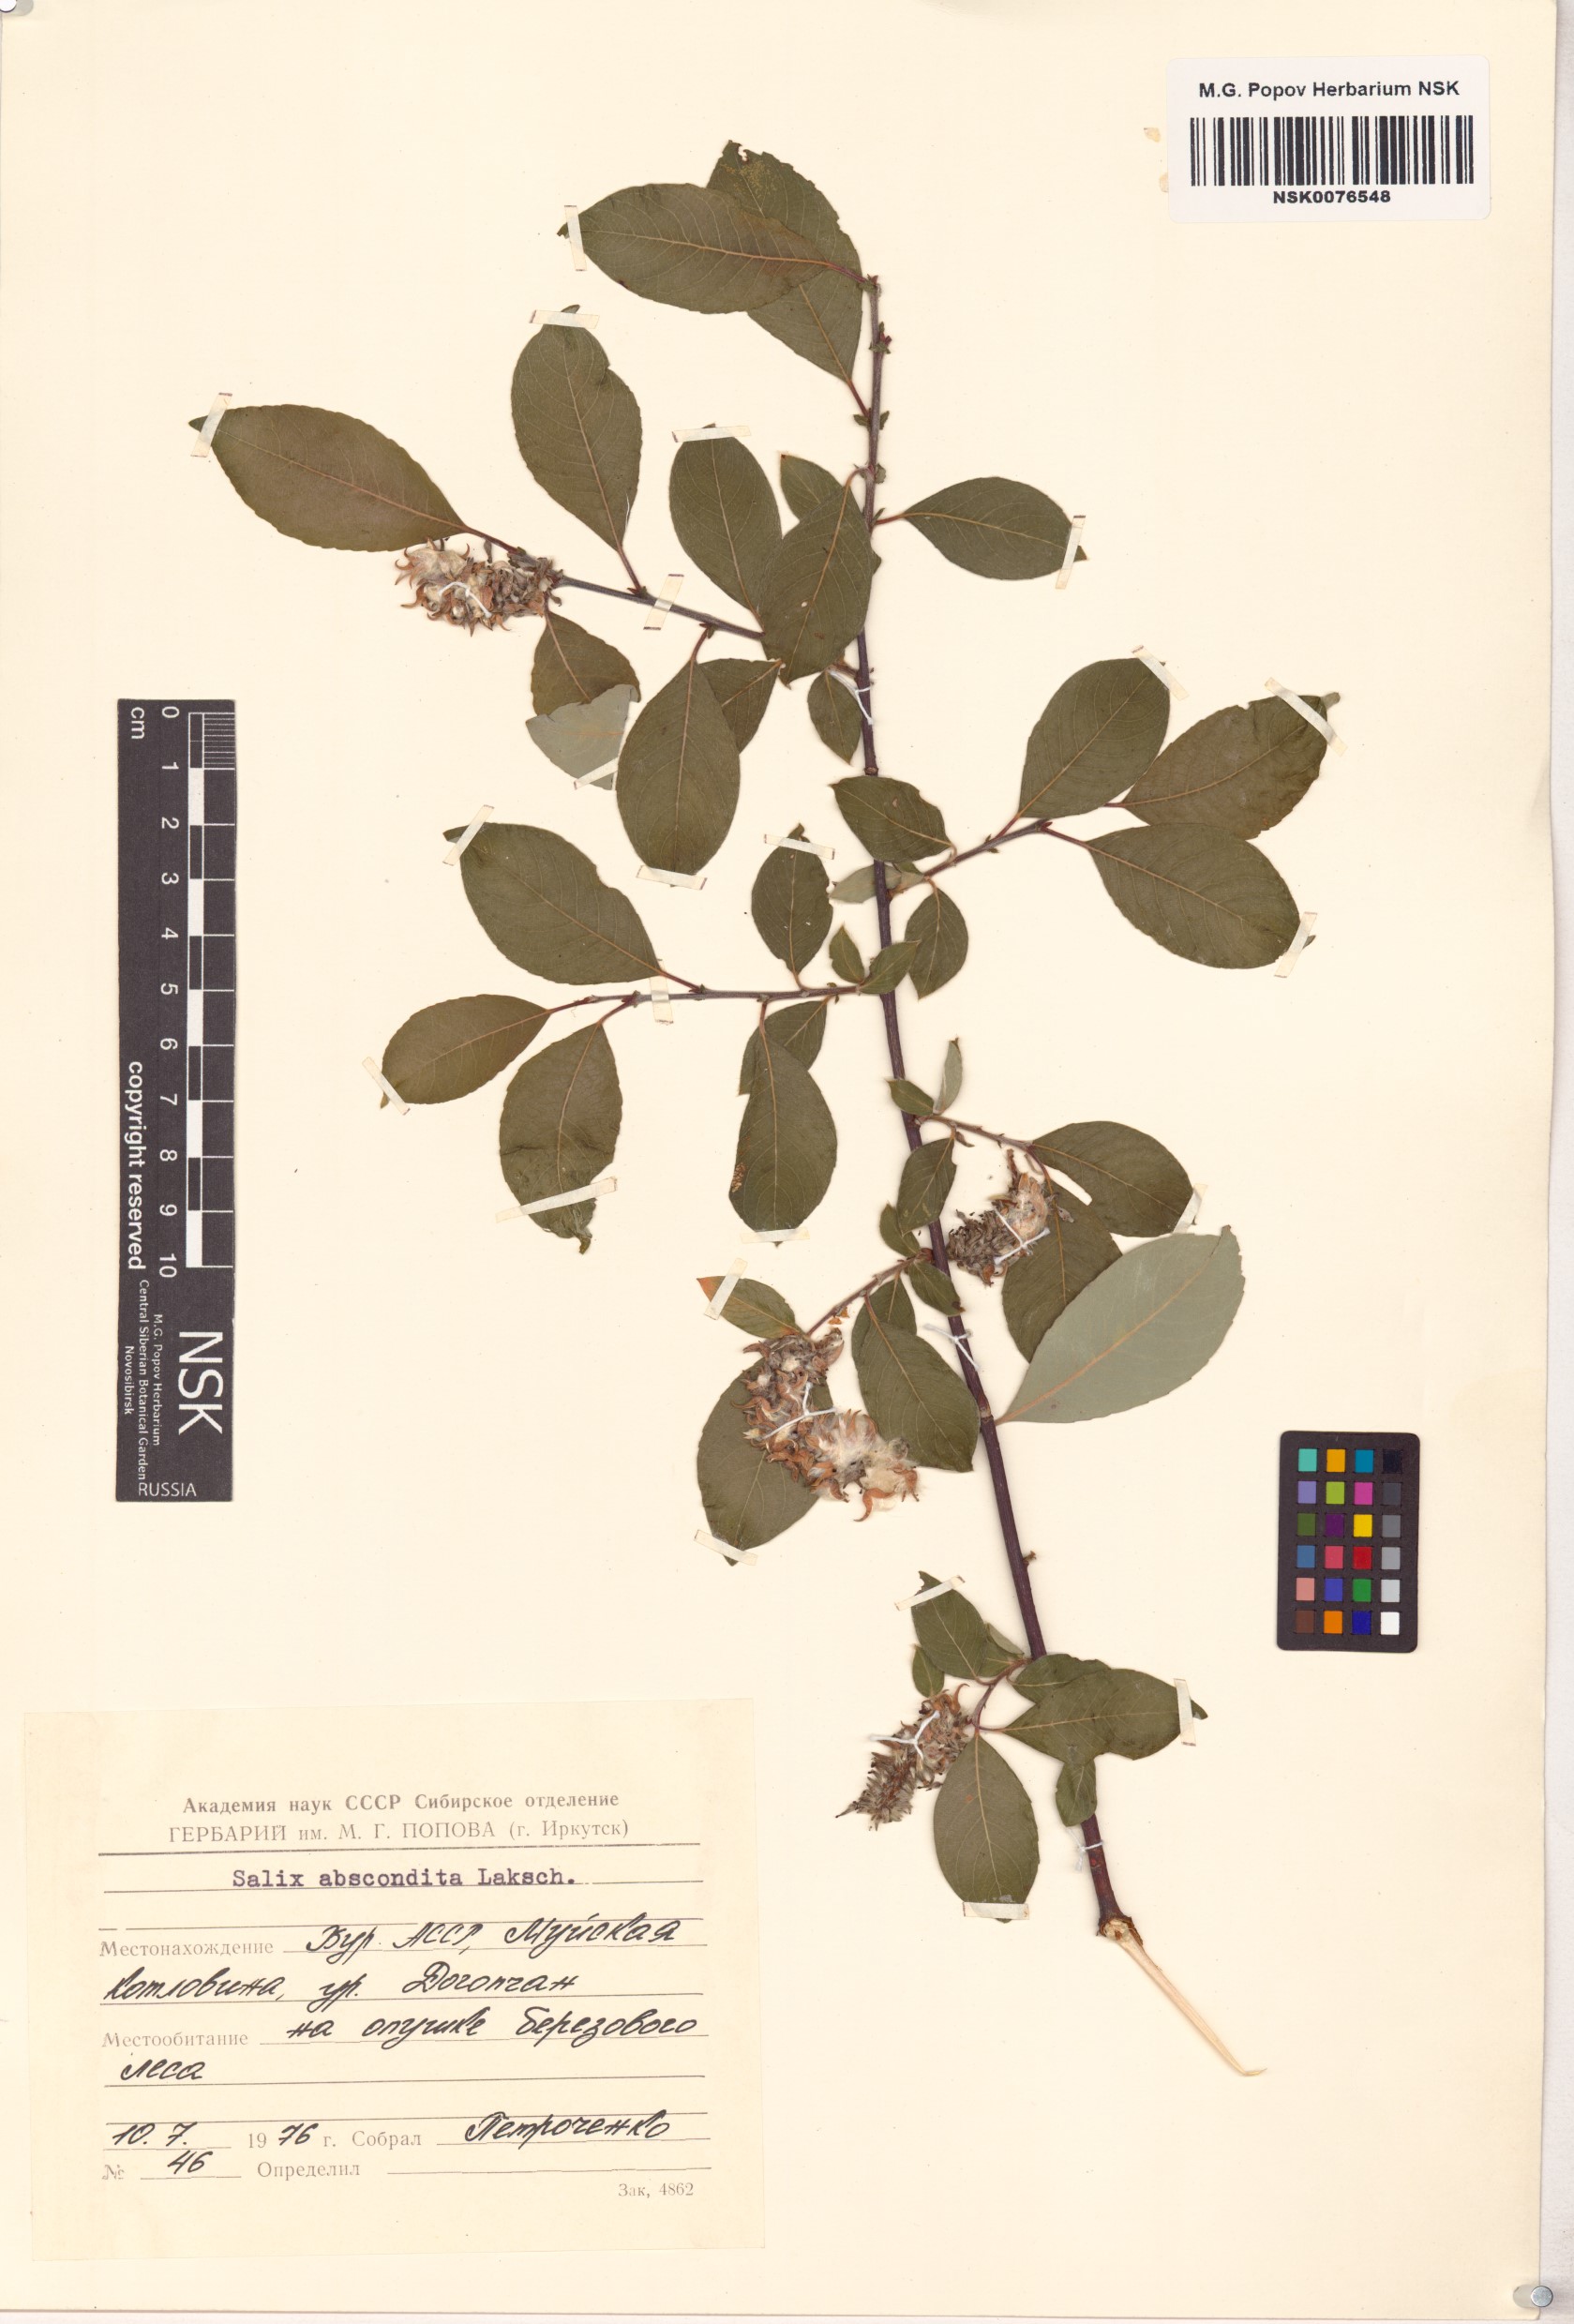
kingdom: Plantae
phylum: Tracheophyta
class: Magnoliopsida
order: Malpighiales
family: Salicaceae
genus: Salix
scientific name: Salix abscondita
